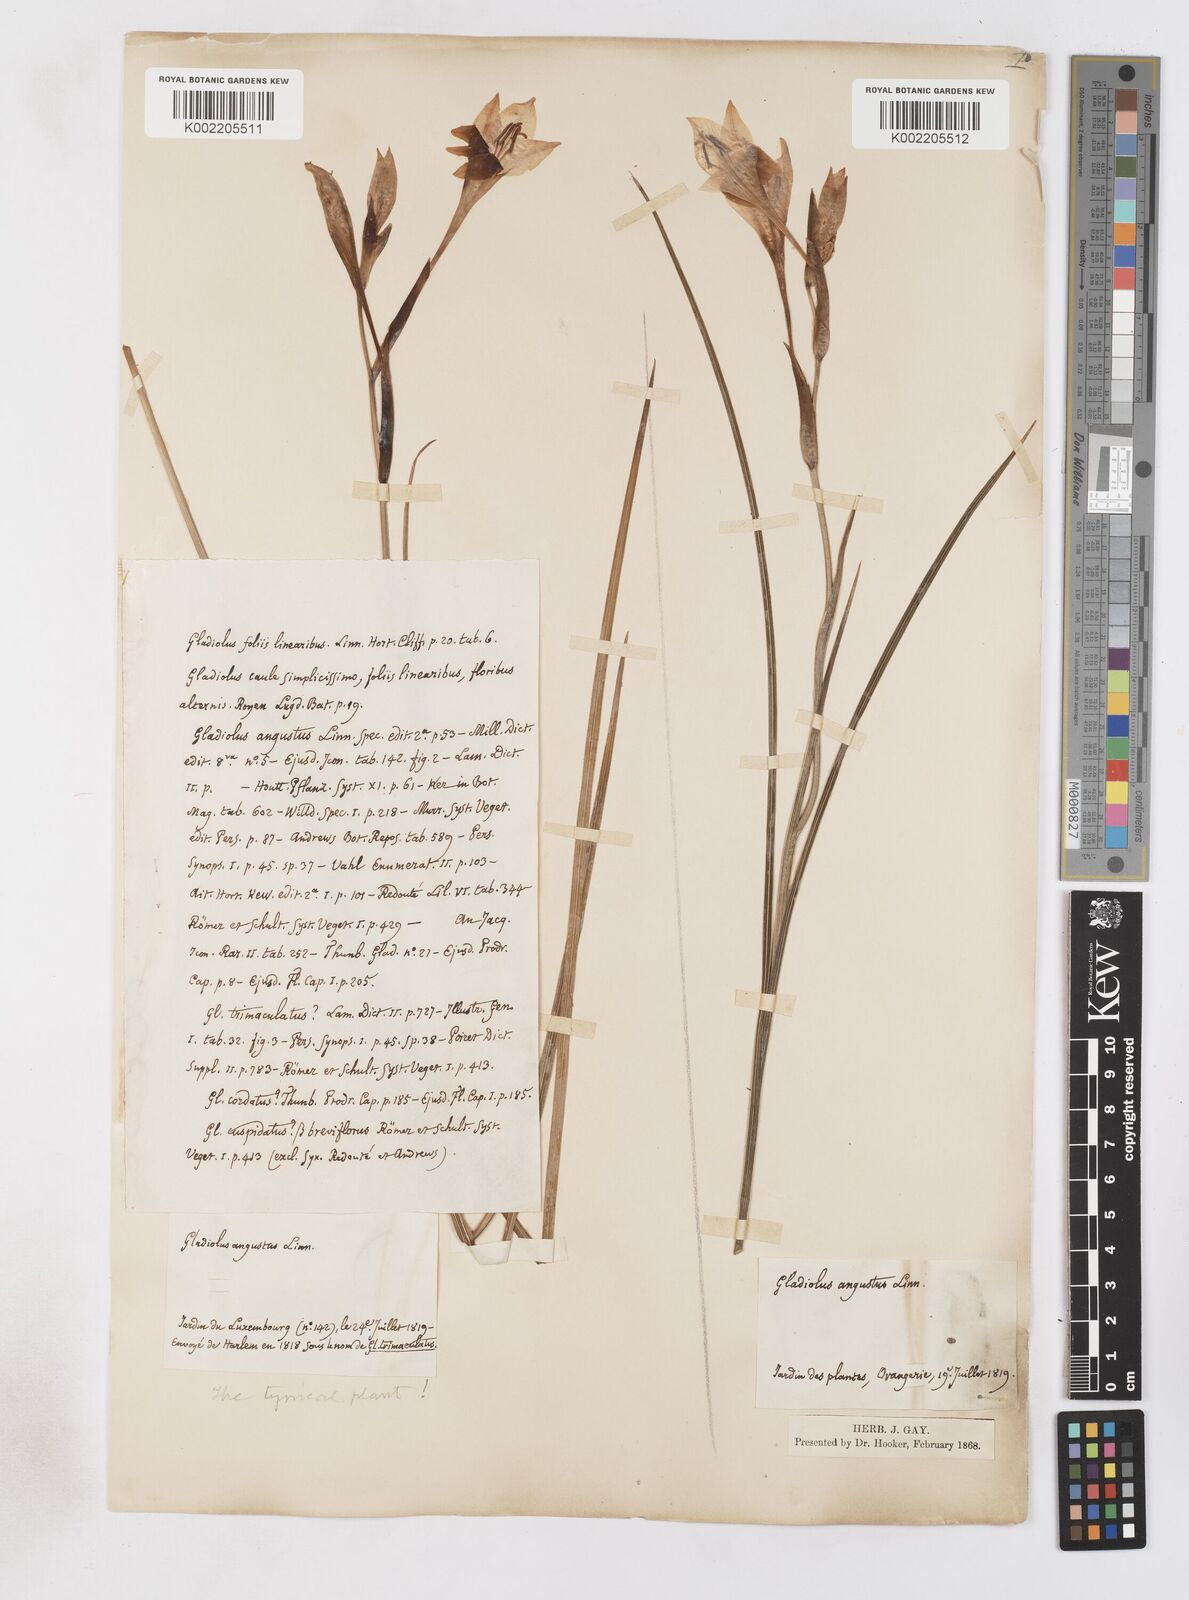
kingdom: Plantae
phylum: Tracheophyta
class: Liliopsida
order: Asparagales
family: Iridaceae
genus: Gladiolus
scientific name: Gladiolus angustus
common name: Painted-lady
